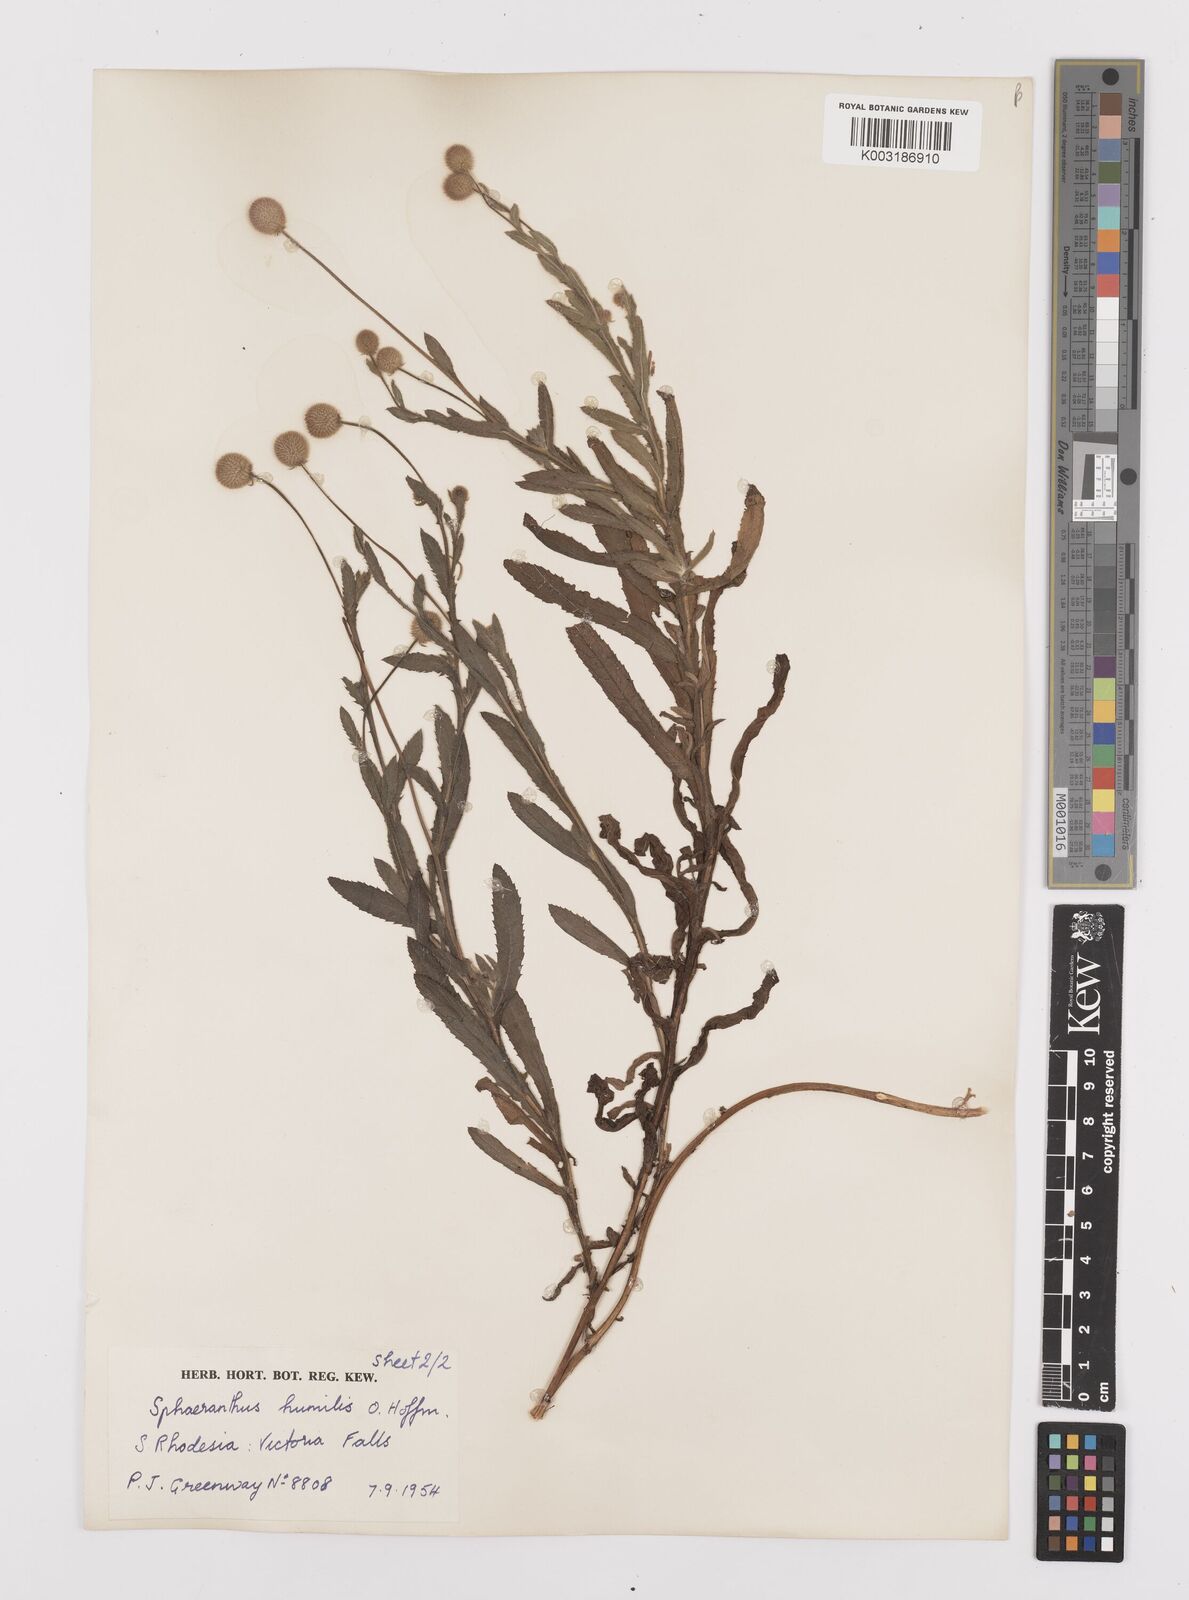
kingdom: Plantae
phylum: Tracheophyta
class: Magnoliopsida
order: Asterales
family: Asteraceae
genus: Sphaeranthus
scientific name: Sphaeranthus flexuosus
